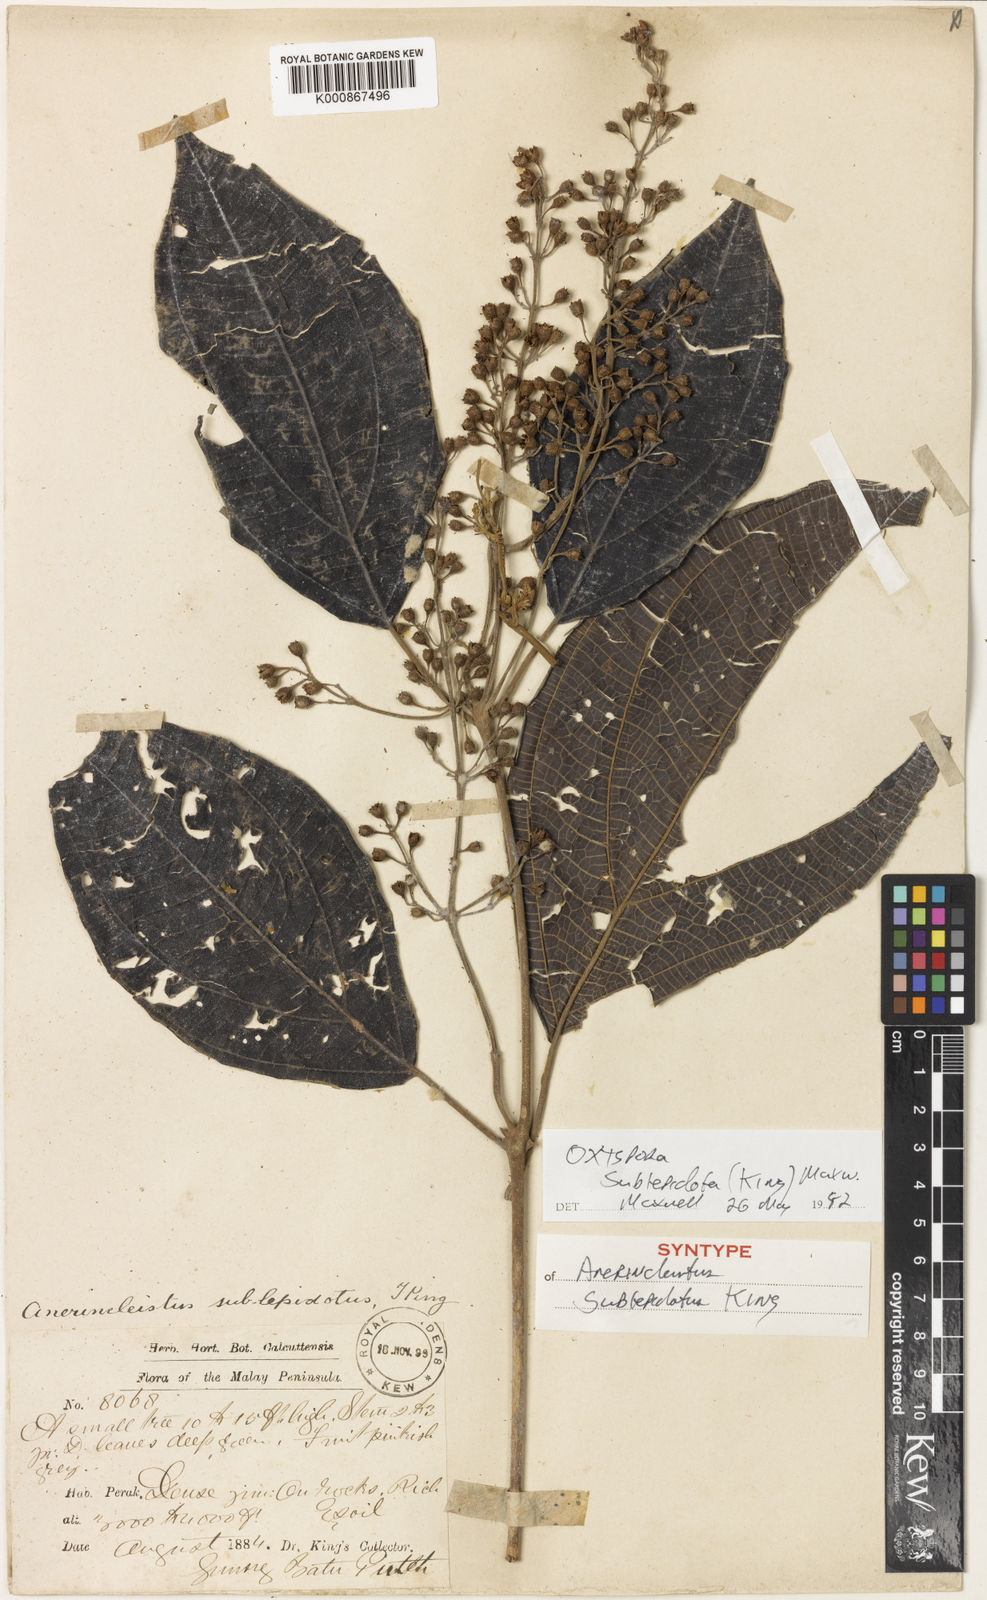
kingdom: Plantae
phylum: Tracheophyta
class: Magnoliopsida
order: Myrtales
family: Melastomataceae
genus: Allomorphia
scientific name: Allomorphia rosea
